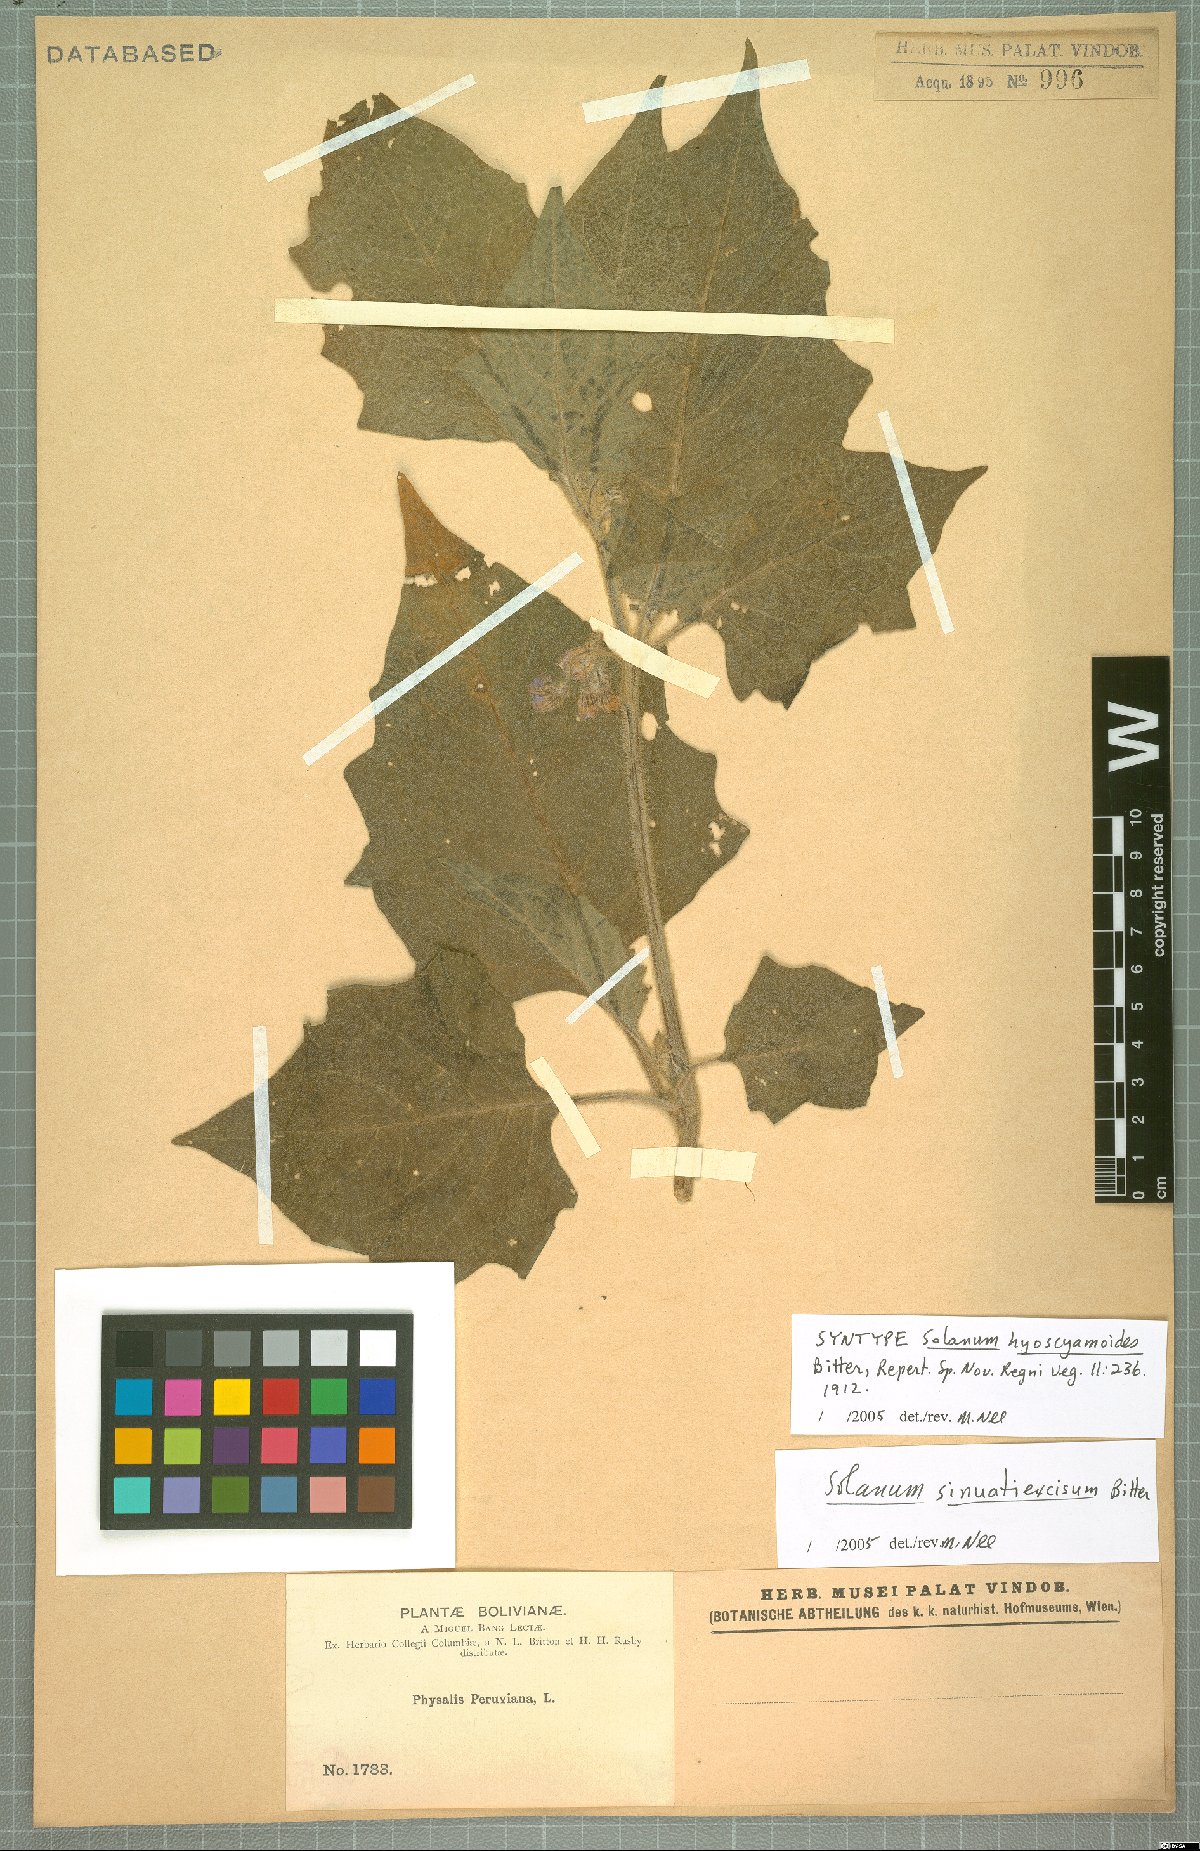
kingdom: Plantae
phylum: Tracheophyta
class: Magnoliopsida
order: Solanales
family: Solanaceae
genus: Solanum
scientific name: Solanum sinuatiexcisum
